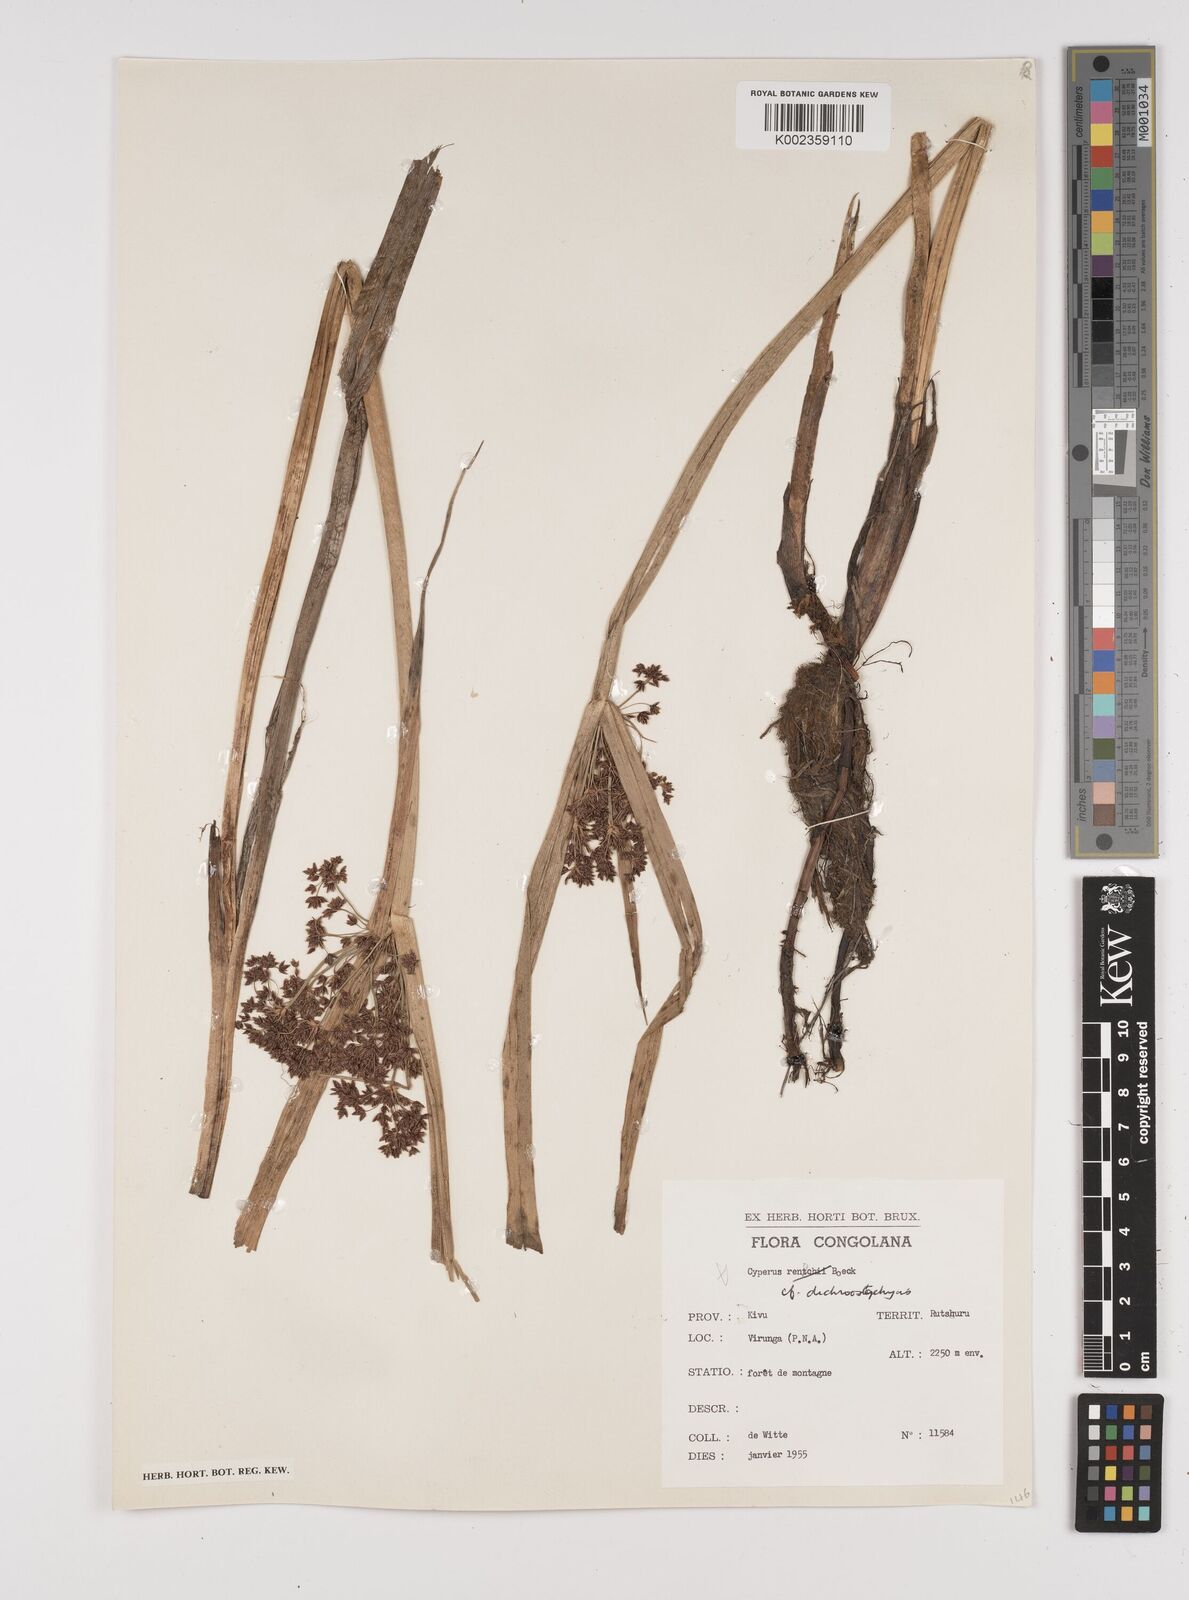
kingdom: Plantae
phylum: Tracheophyta
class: Liliopsida
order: Poales
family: Cyperaceae
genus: Cyperus
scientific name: Cyperus dichrostachyus
